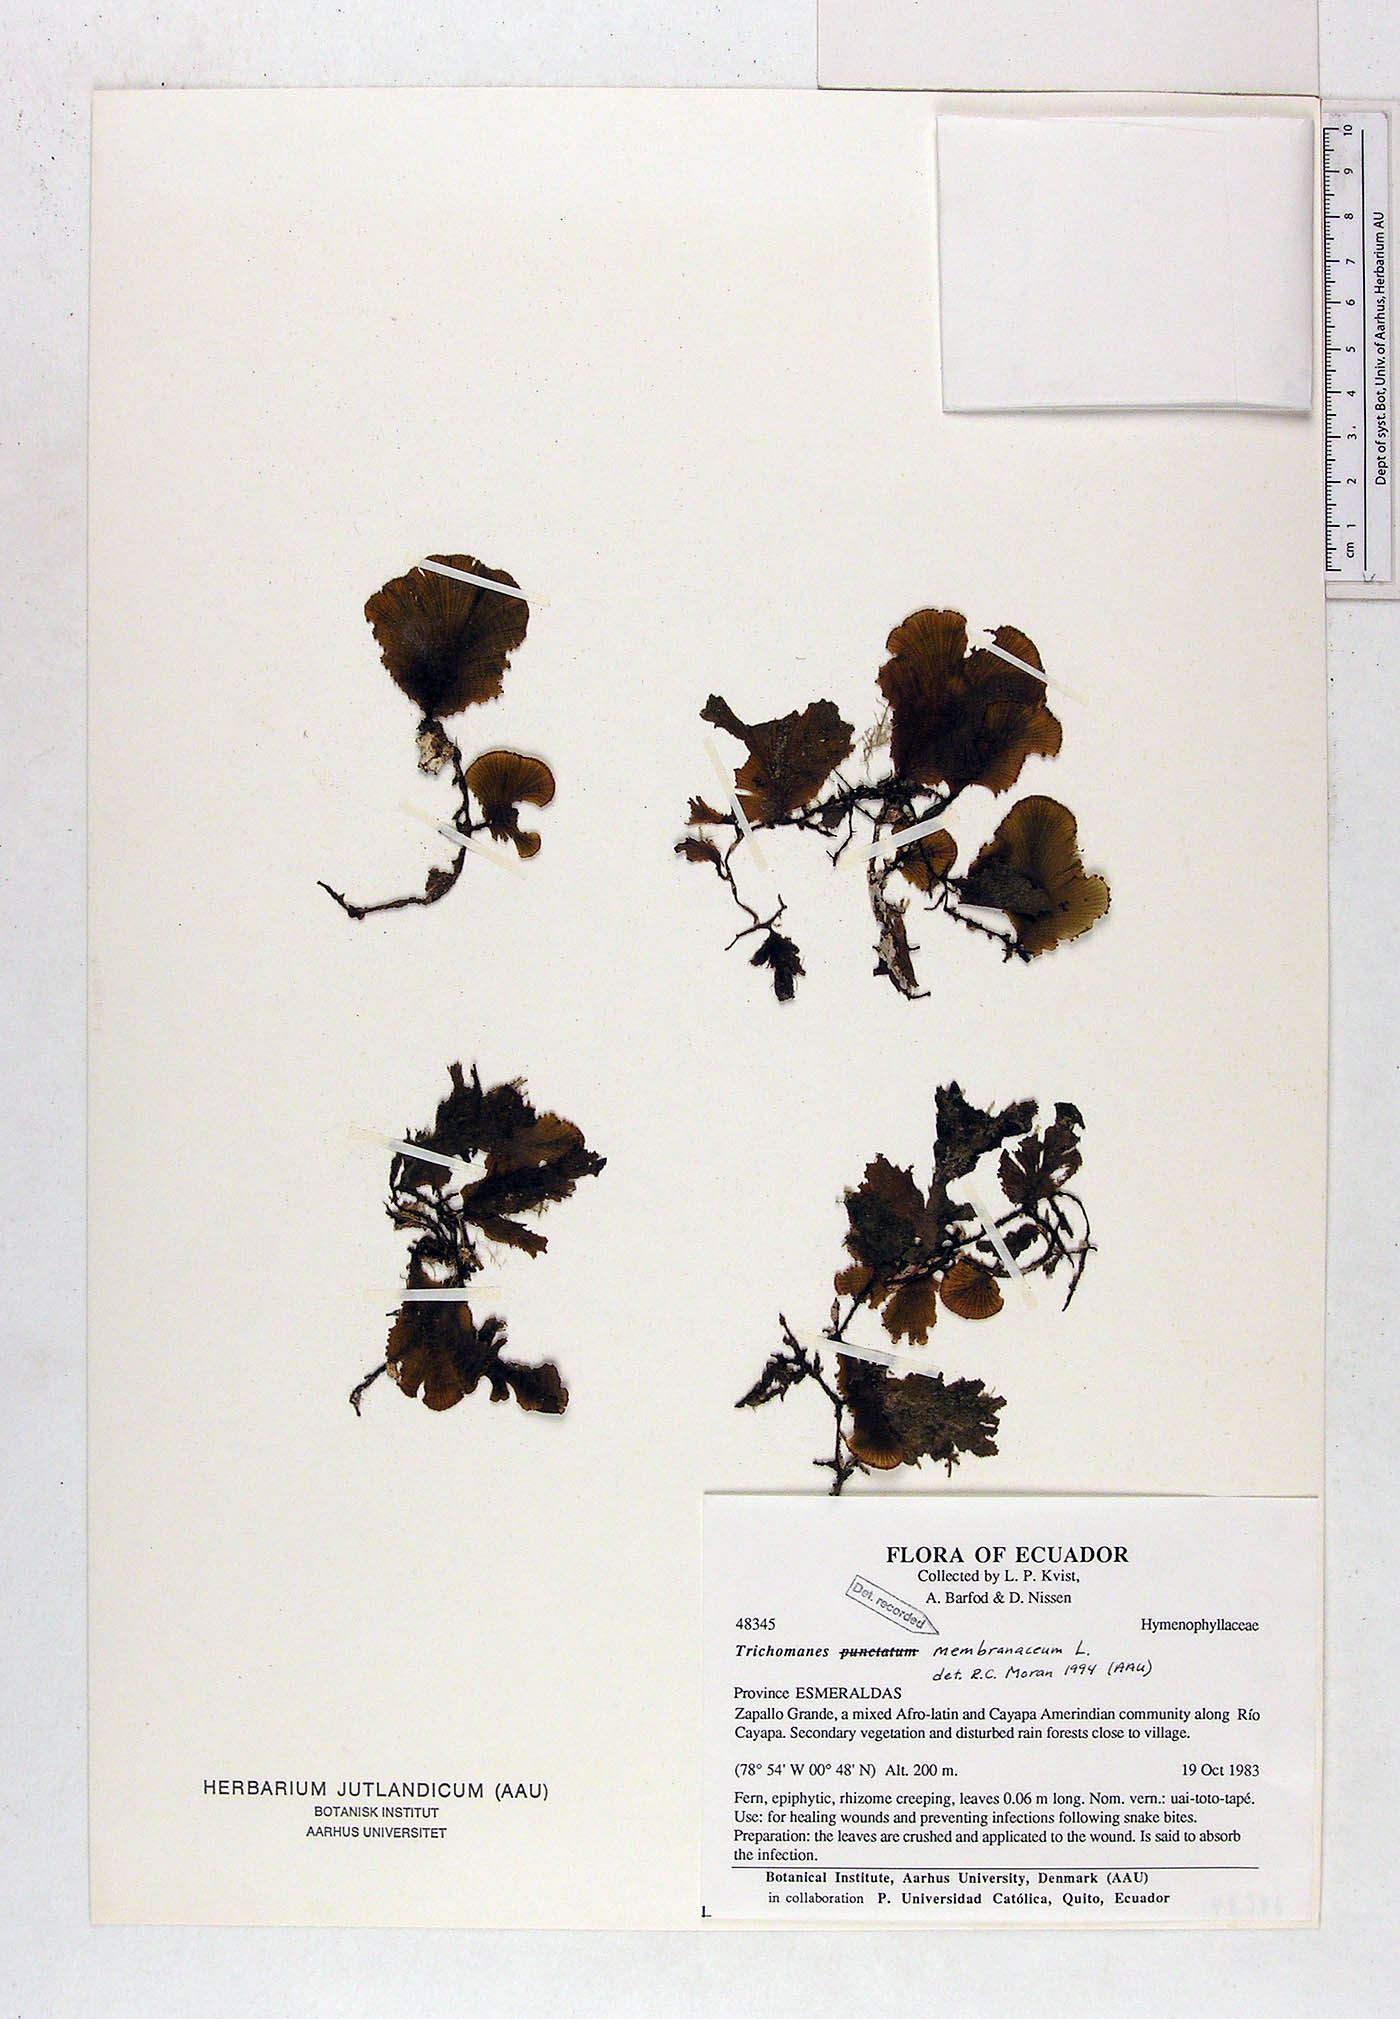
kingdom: Plantae
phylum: Tracheophyta
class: Polypodiopsida
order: Hymenophyllales
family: Hymenophyllaceae
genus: Didymoglossum
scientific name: Didymoglossum membranaceum
